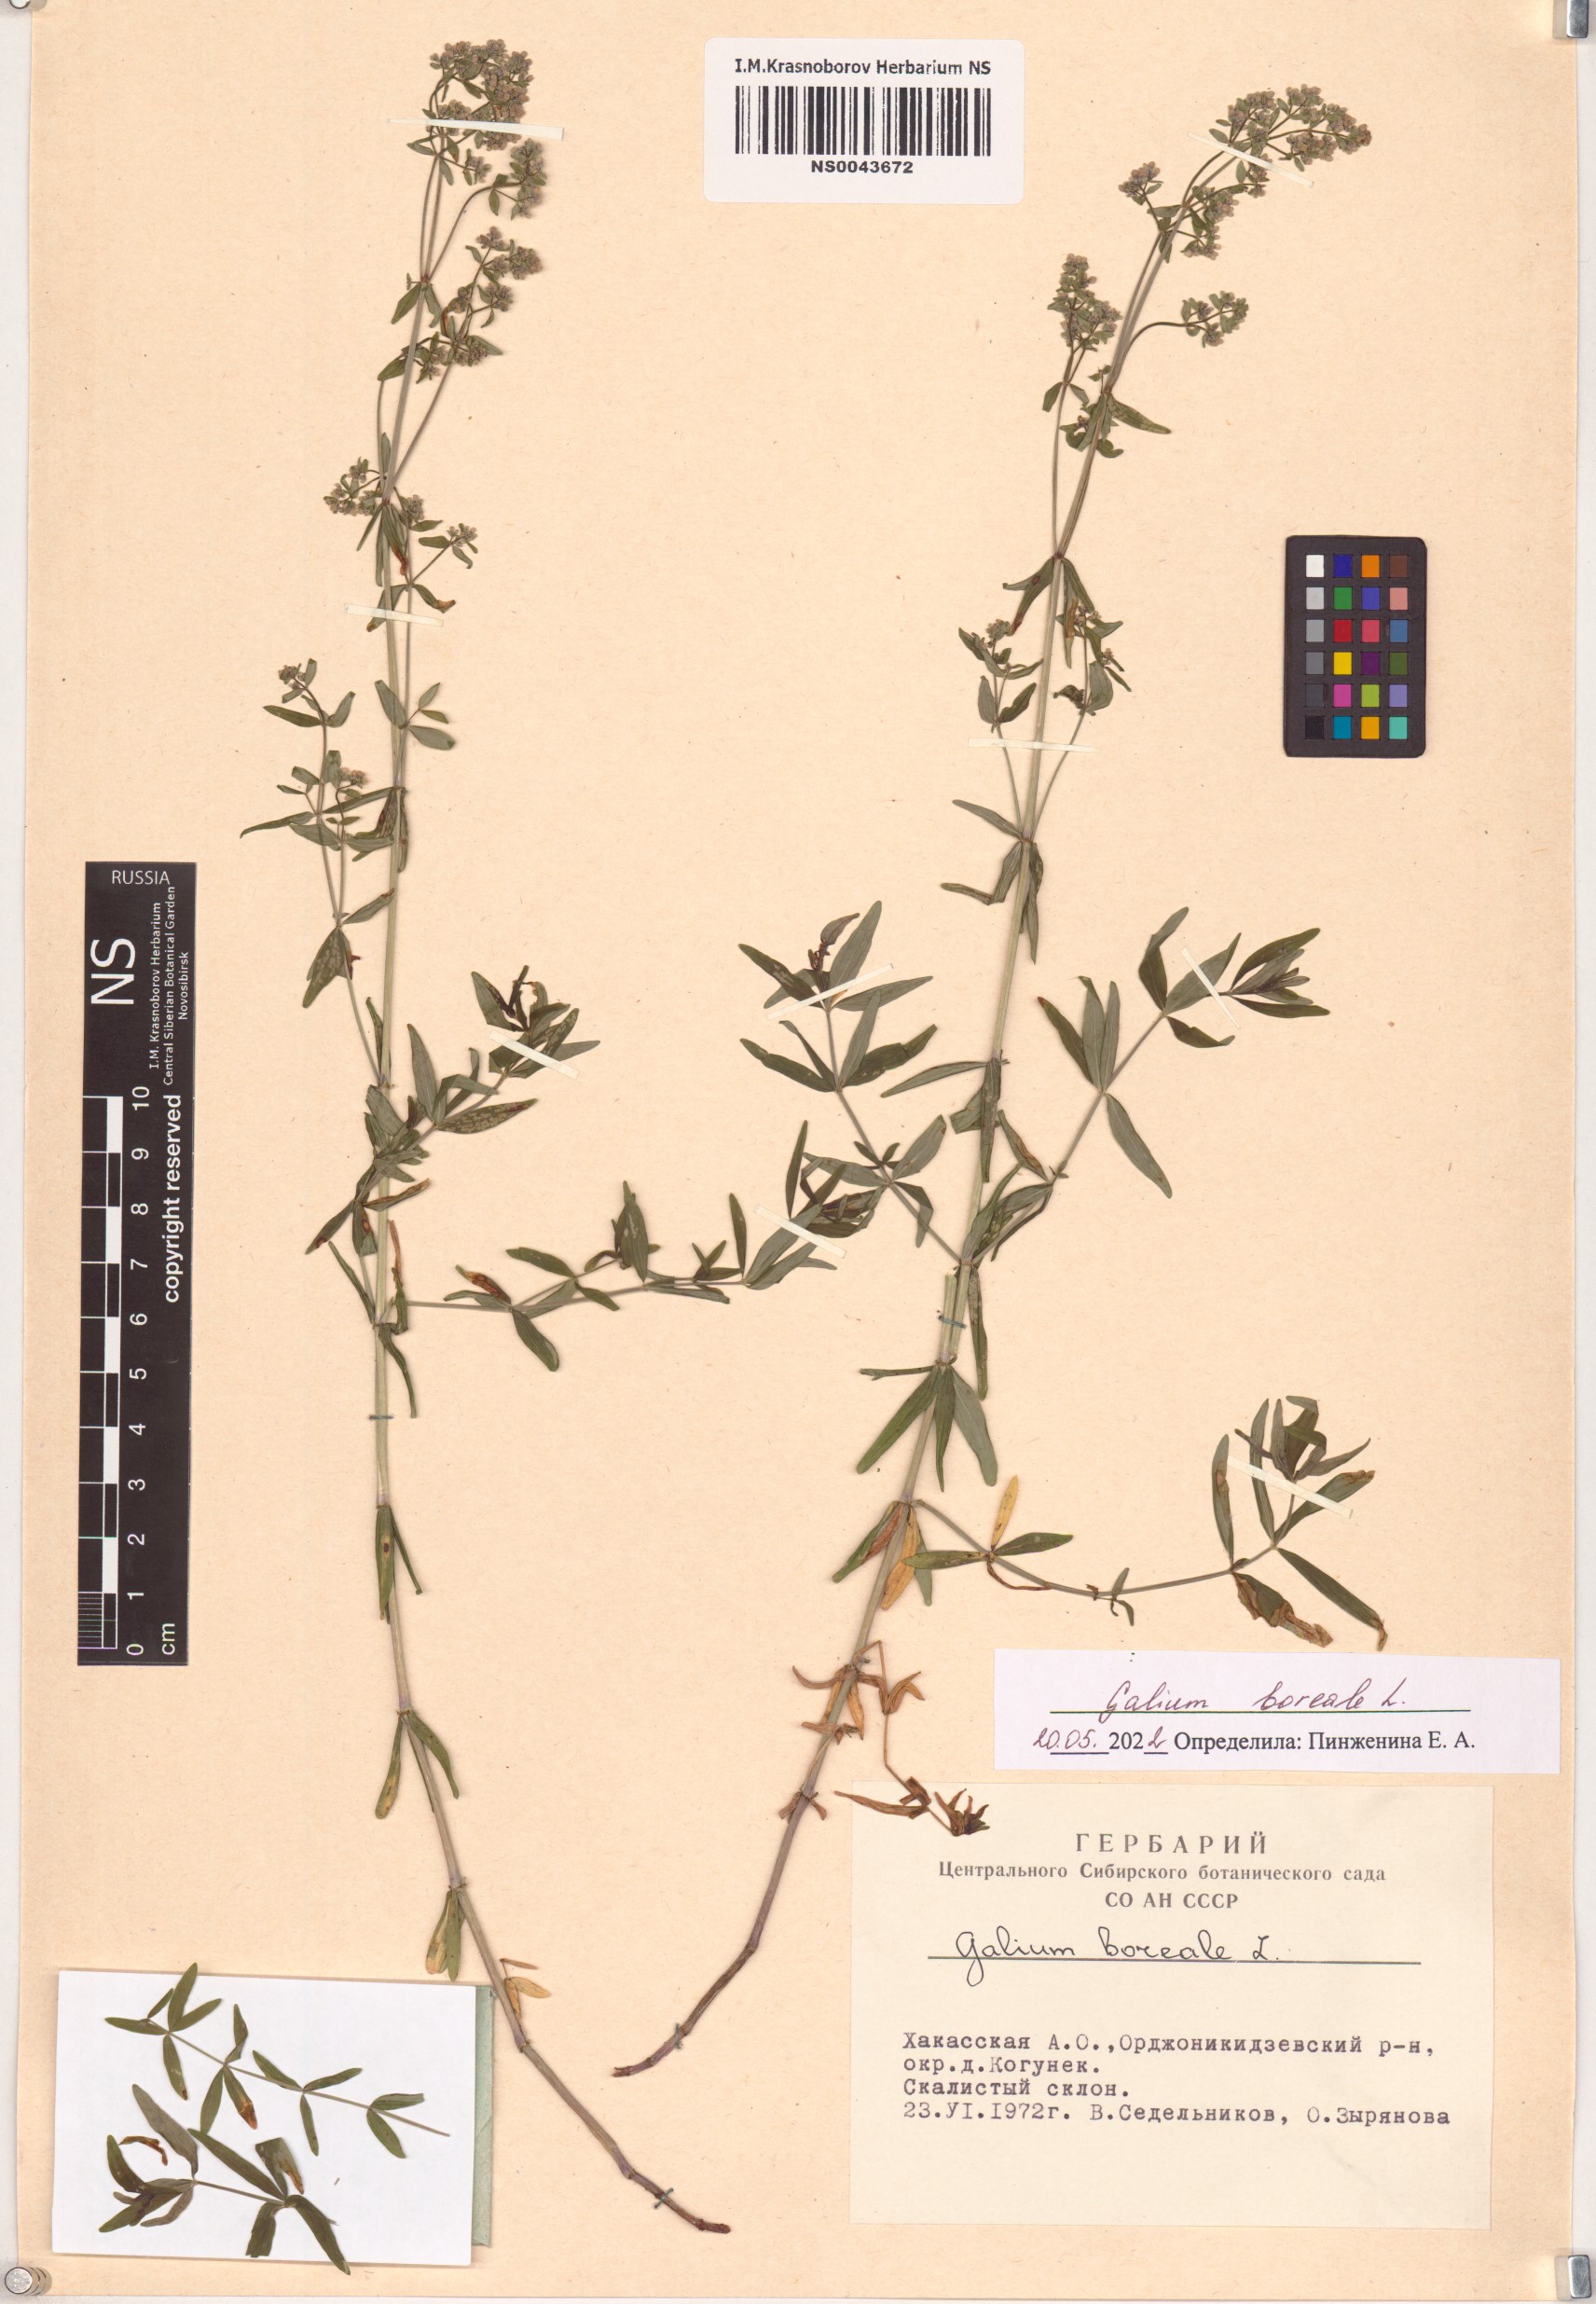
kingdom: Plantae
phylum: Tracheophyta
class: Magnoliopsida
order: Gentianales
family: Rubiaceae
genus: Galium
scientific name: Galium boreale
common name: Northern bedstraw
